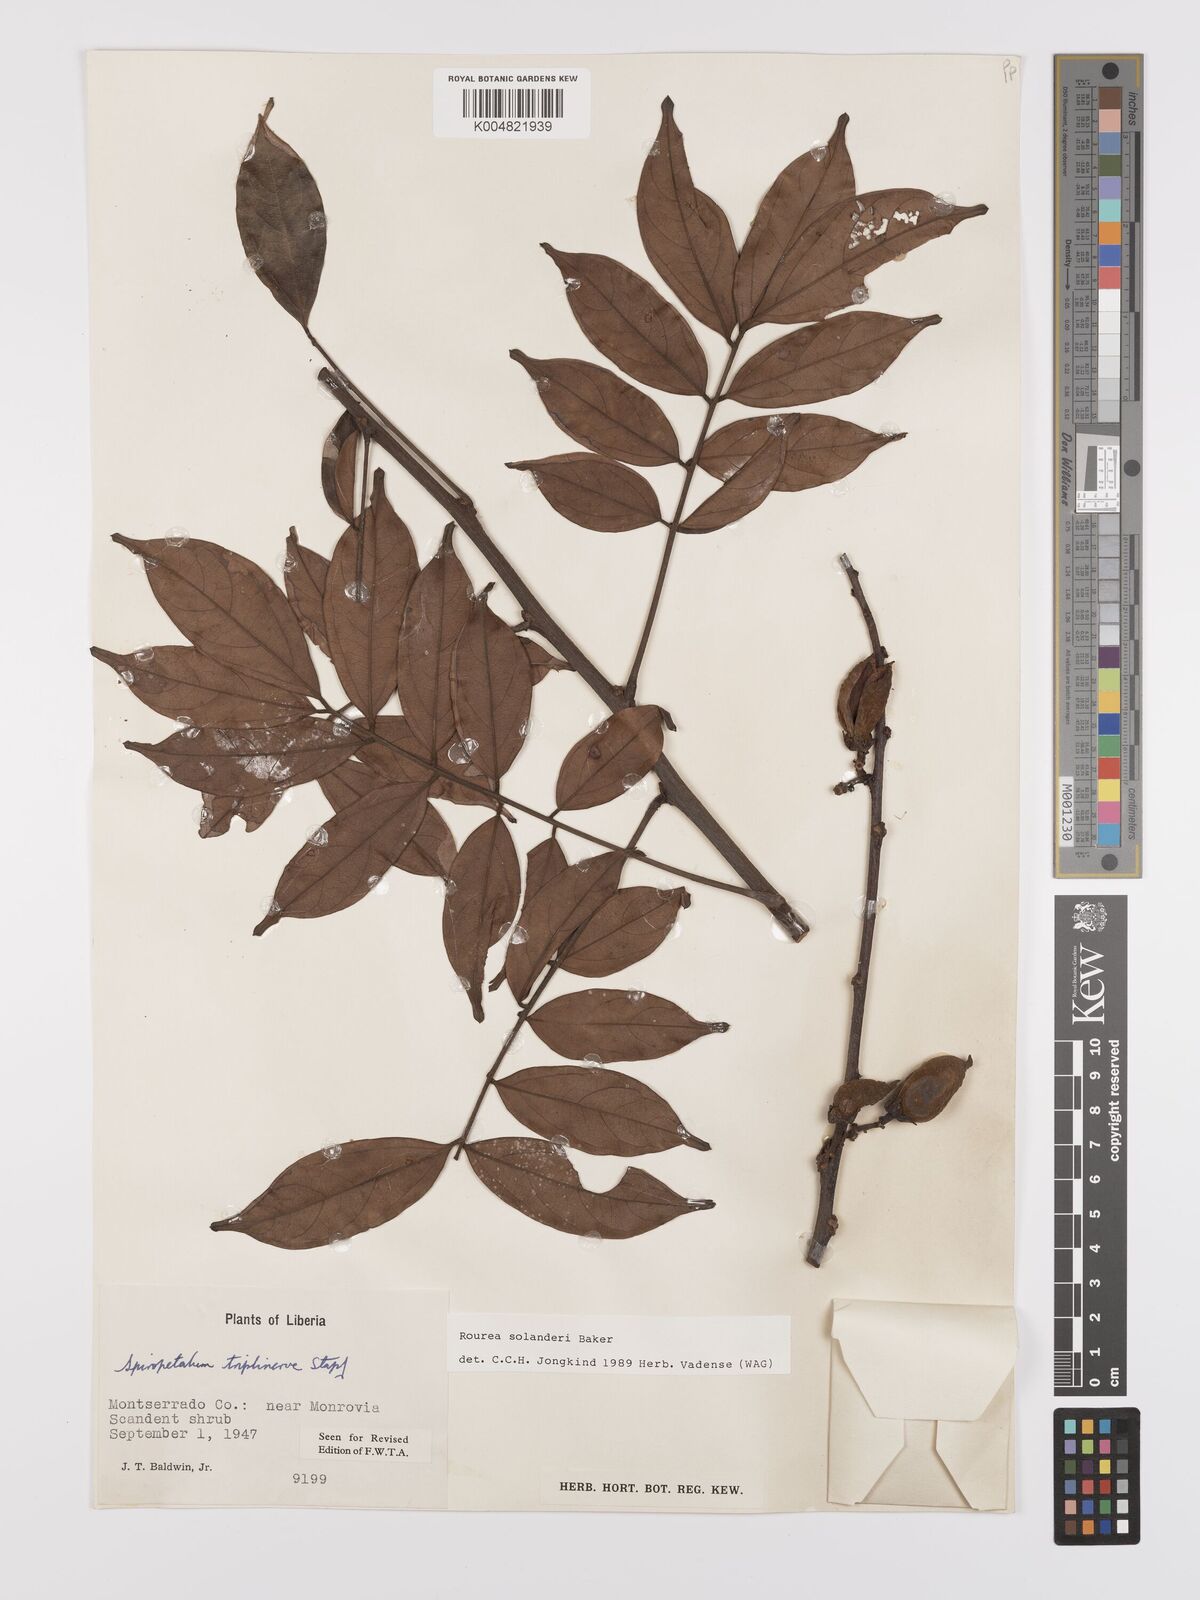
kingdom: Plantae
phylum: Tracheophyta
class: Magnoliopsida
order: Oxalidales
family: Connaraceae
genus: Rourea
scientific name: Rourea solanderi
